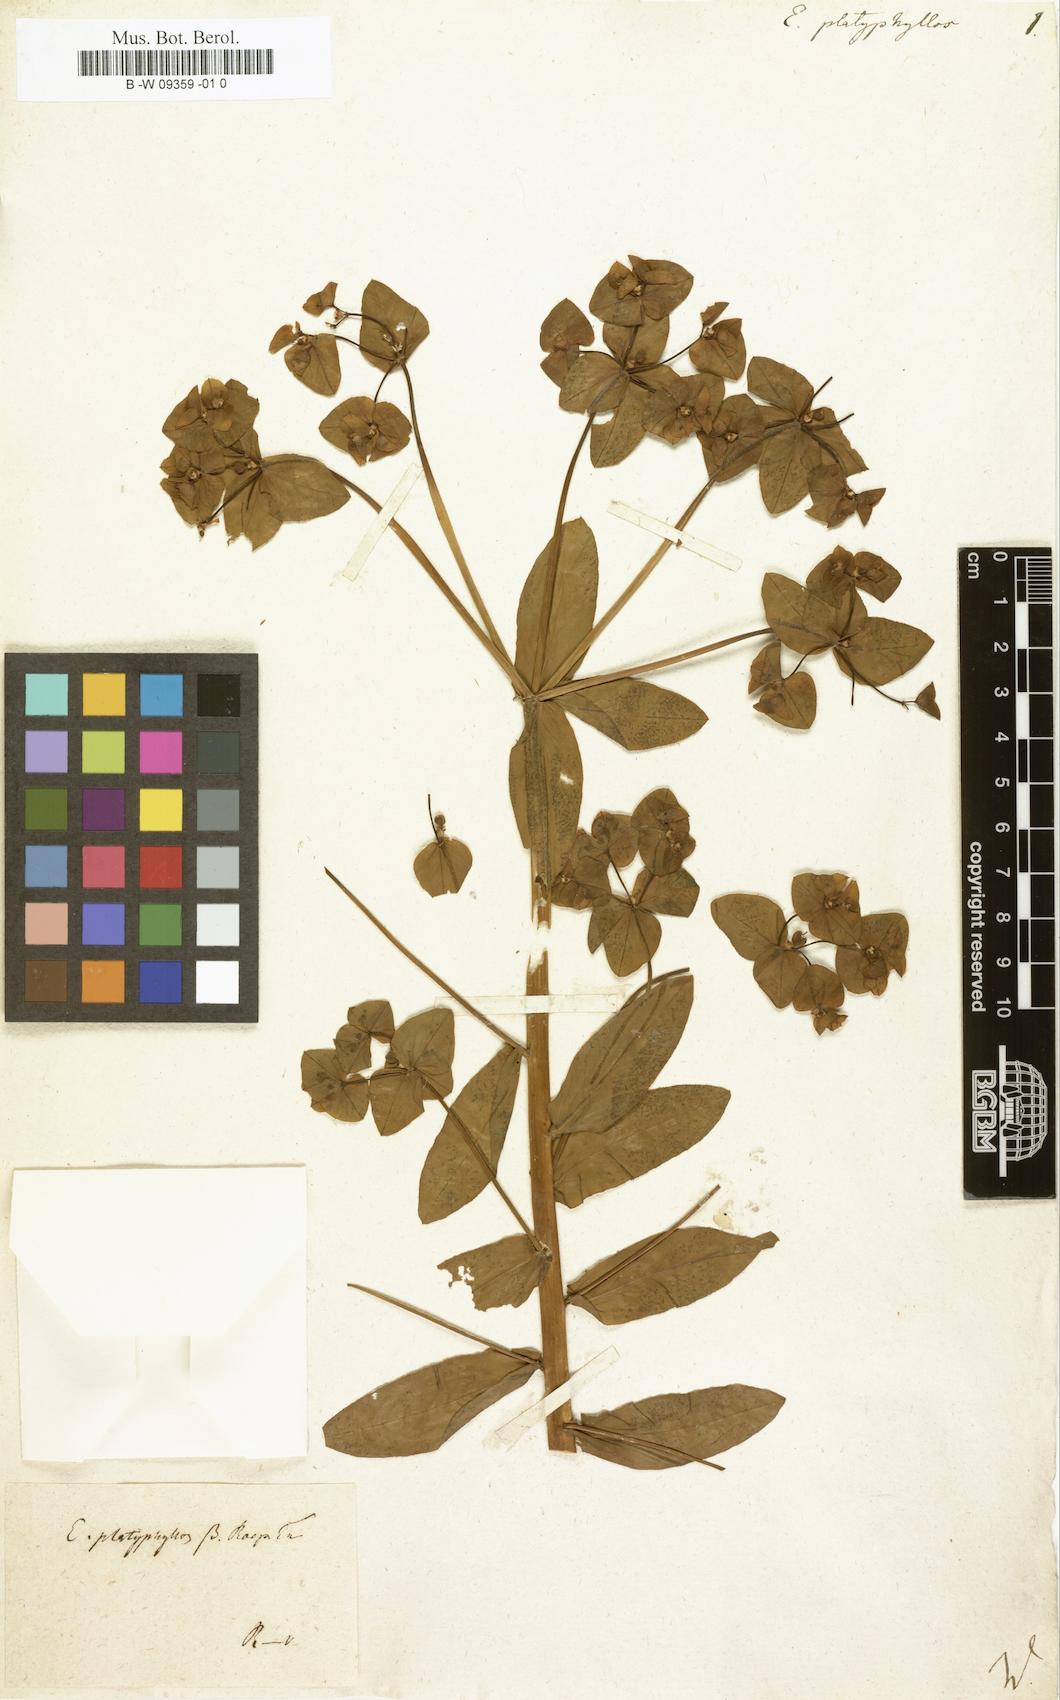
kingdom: Plantae
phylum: Tracheophyta
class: Magnoliopsida
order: Malpighiales
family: Euphorbiaceae
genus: Euphorbia
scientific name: Euphorbia platyphyllos
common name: Broad-leaved spurge
